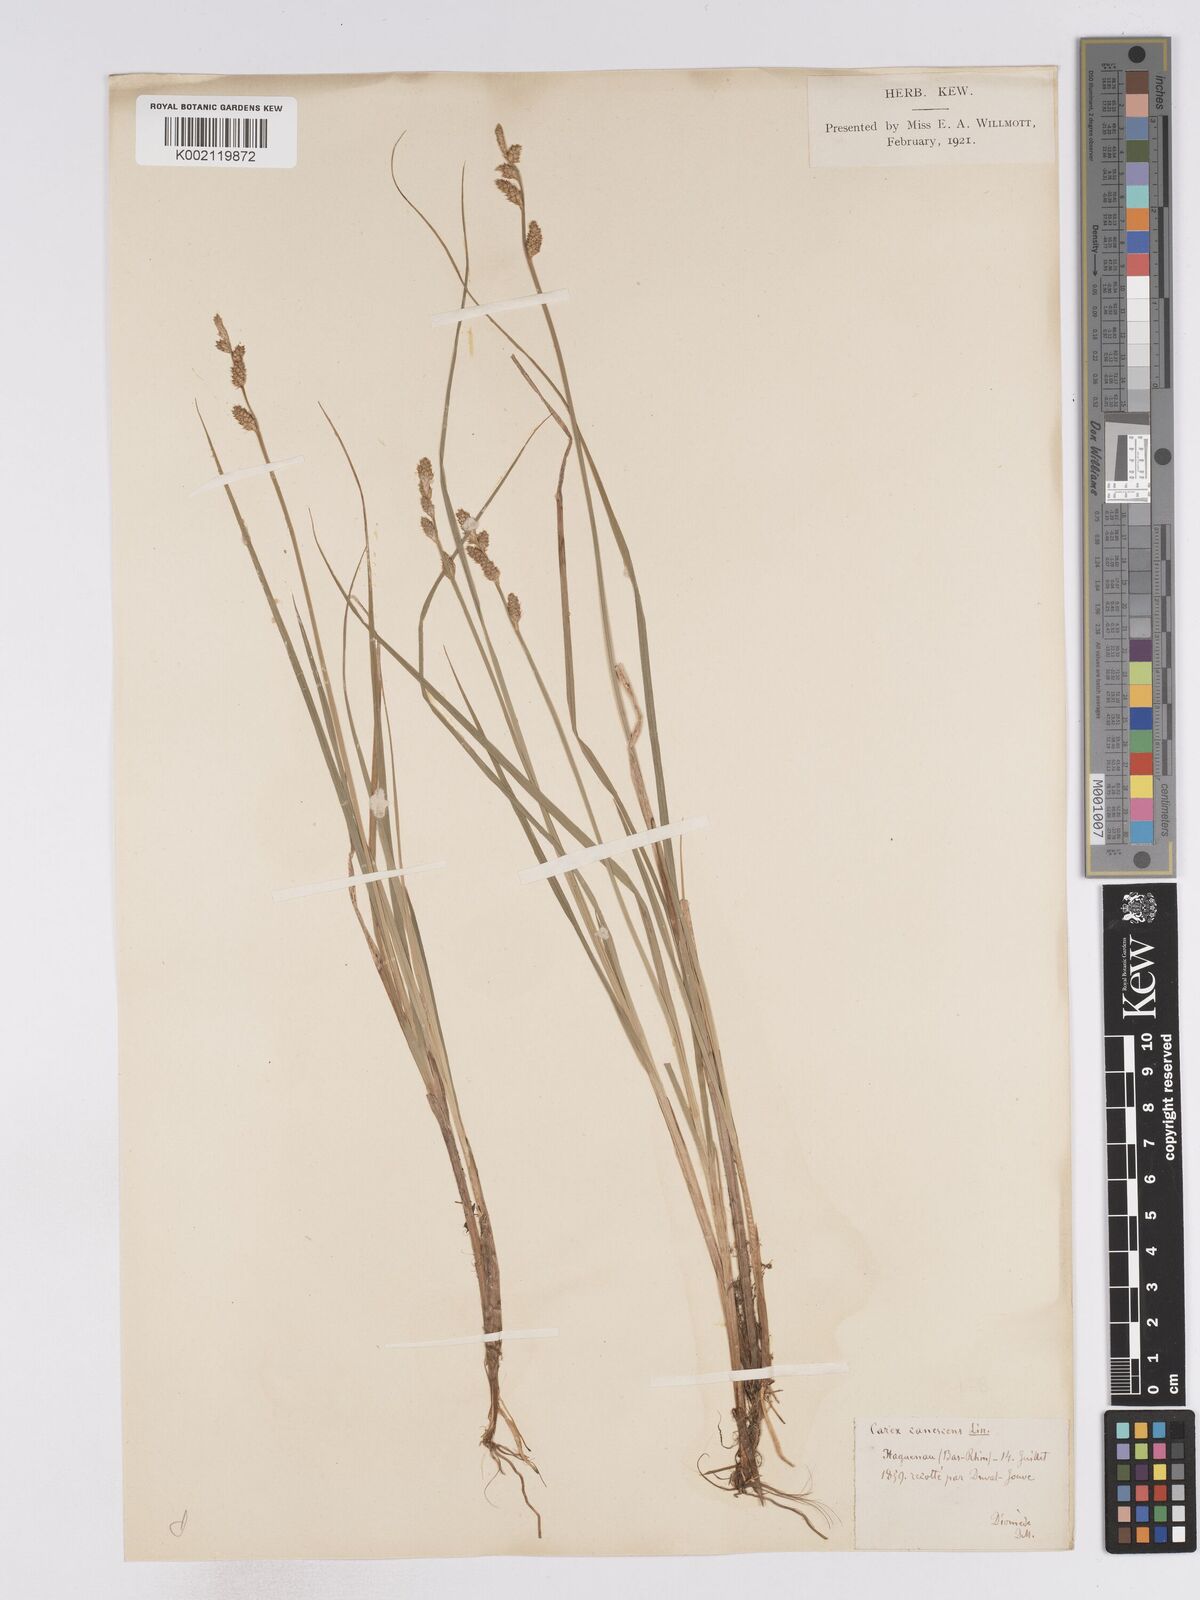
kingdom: Plantae
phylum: Tracheophyta
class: Liliopsida
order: Poales
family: Cyperaceae
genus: Carex
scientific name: Carex curta
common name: White sedge
